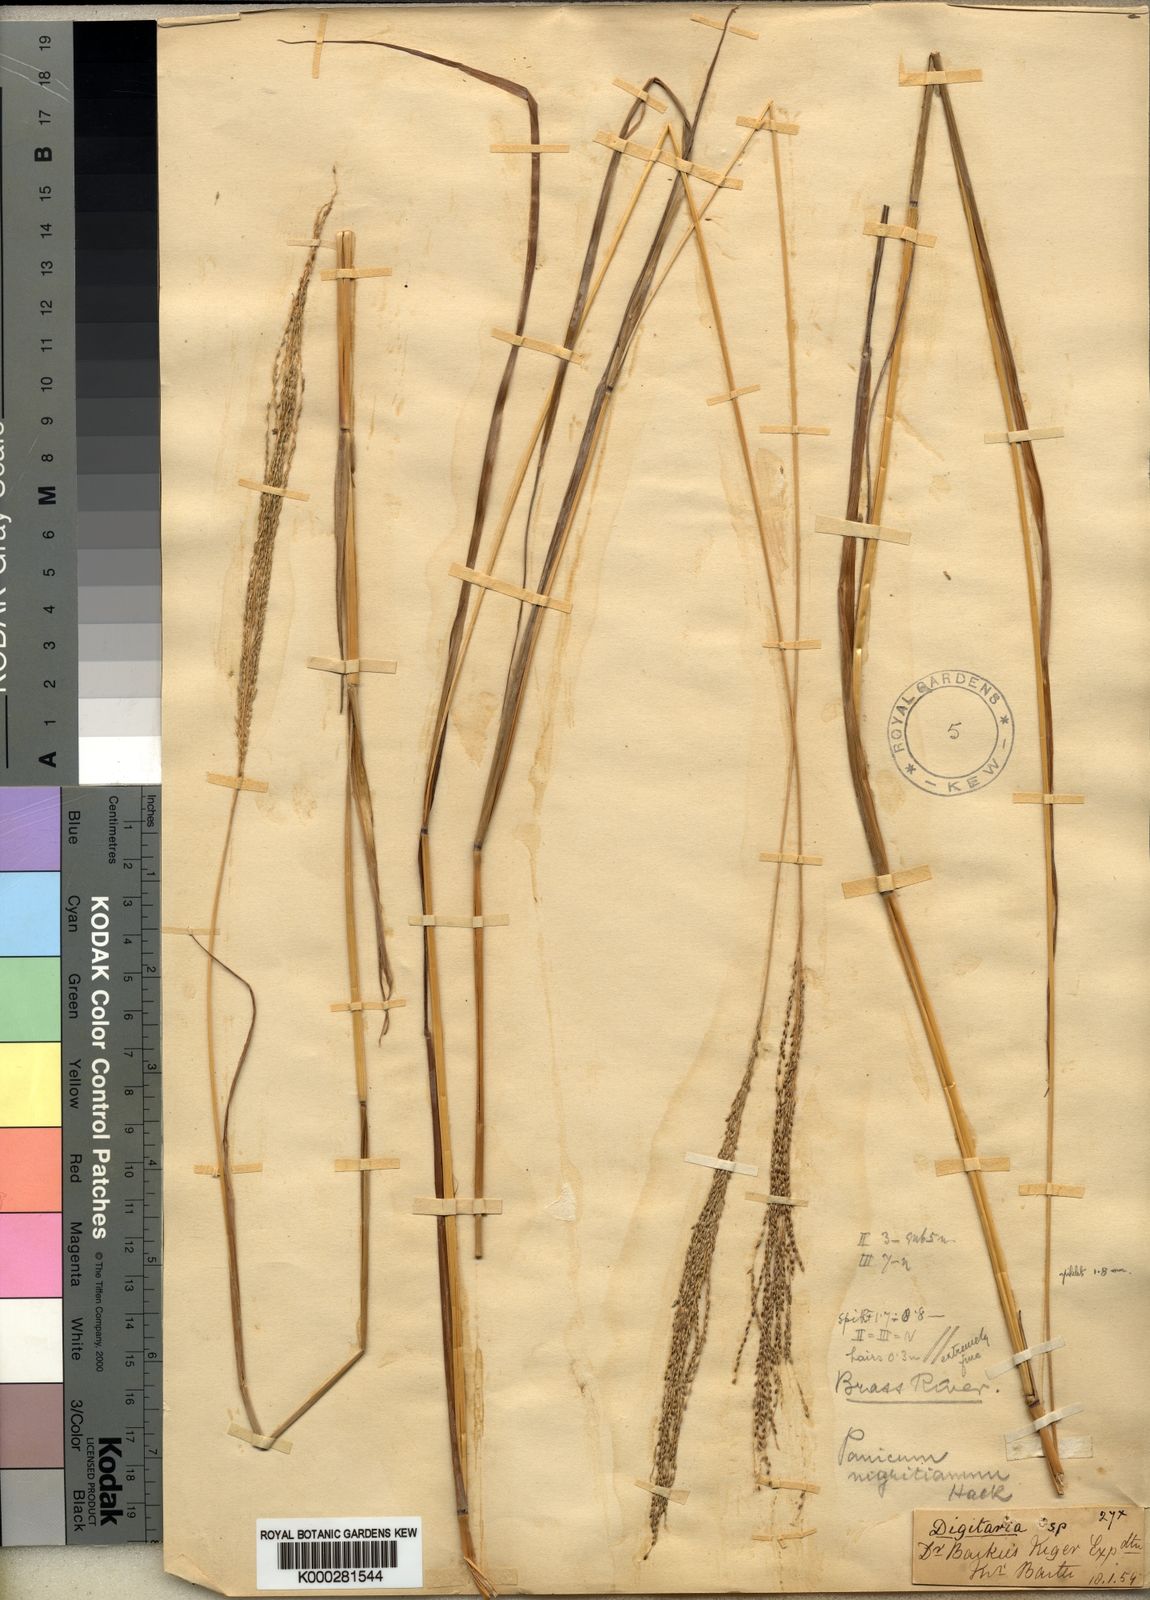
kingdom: Plantae
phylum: Tracheophyta
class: Liliopsida
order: Poales
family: Poaceae
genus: Digitaria
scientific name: Digitaria leptorhachis
